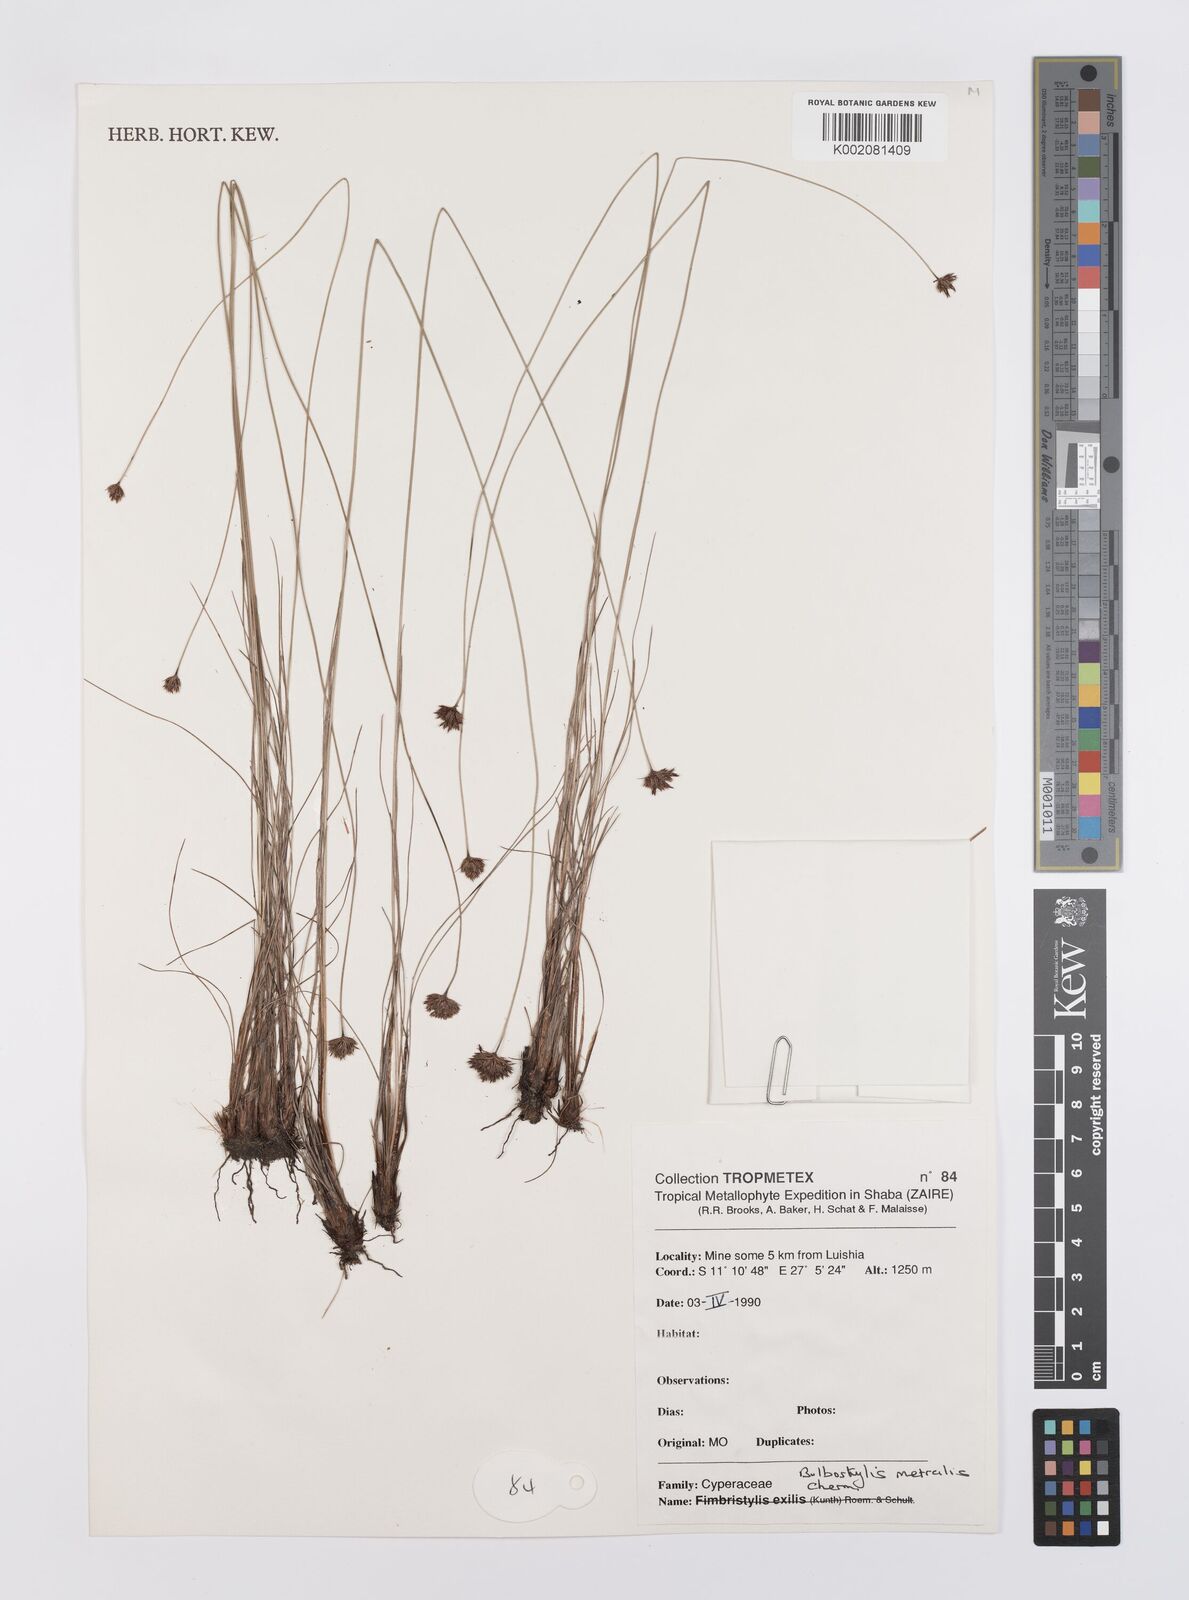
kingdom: Plantae
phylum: Tracheophyta
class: Liliopsida
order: Poales
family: Cyperaceae
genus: Bulbostylis
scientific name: Bulbostylis filamentosa
